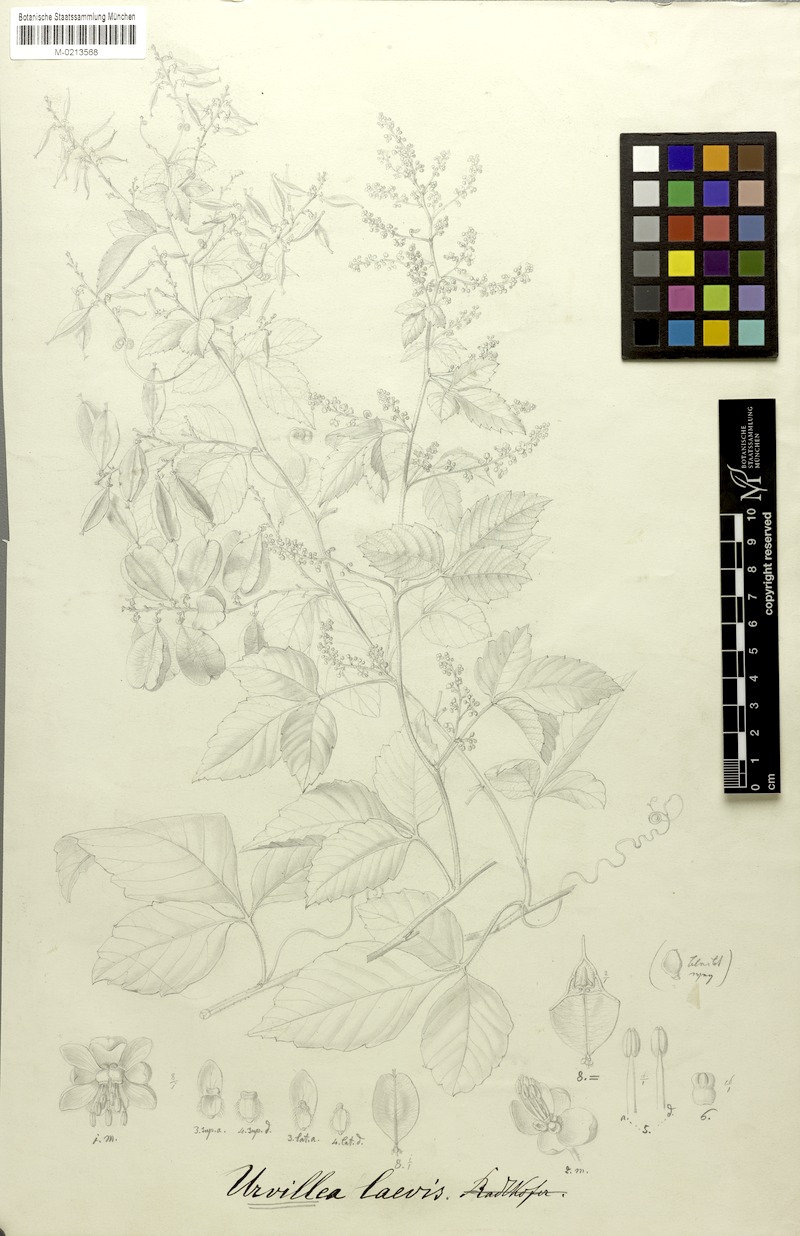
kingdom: Plantae
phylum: Tracheophyta
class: Magnoliopsida
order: Sapindales
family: Sapindaceae
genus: Urvillea
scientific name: Urvillea laevis
